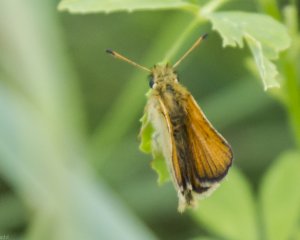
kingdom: Animalia
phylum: Arthropoda
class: Insecta
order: Lepidoptera
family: Hesperiidae
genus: Thymelicus
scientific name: Thymelicus lineola
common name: European Skipper
